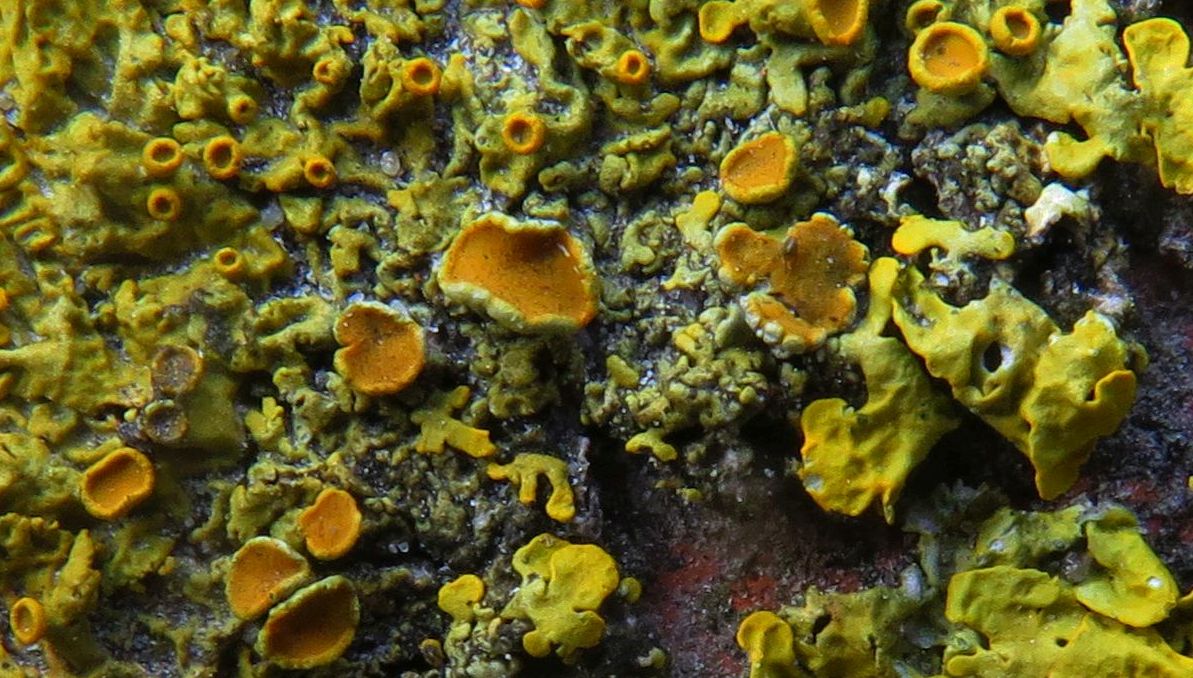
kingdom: Fungi
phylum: Ascomycota
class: Lecanoromycetes
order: Teloschistales
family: Teloschistaceae
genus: Xanthoria
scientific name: Xanthoria parietina
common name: almindelig væggelav
